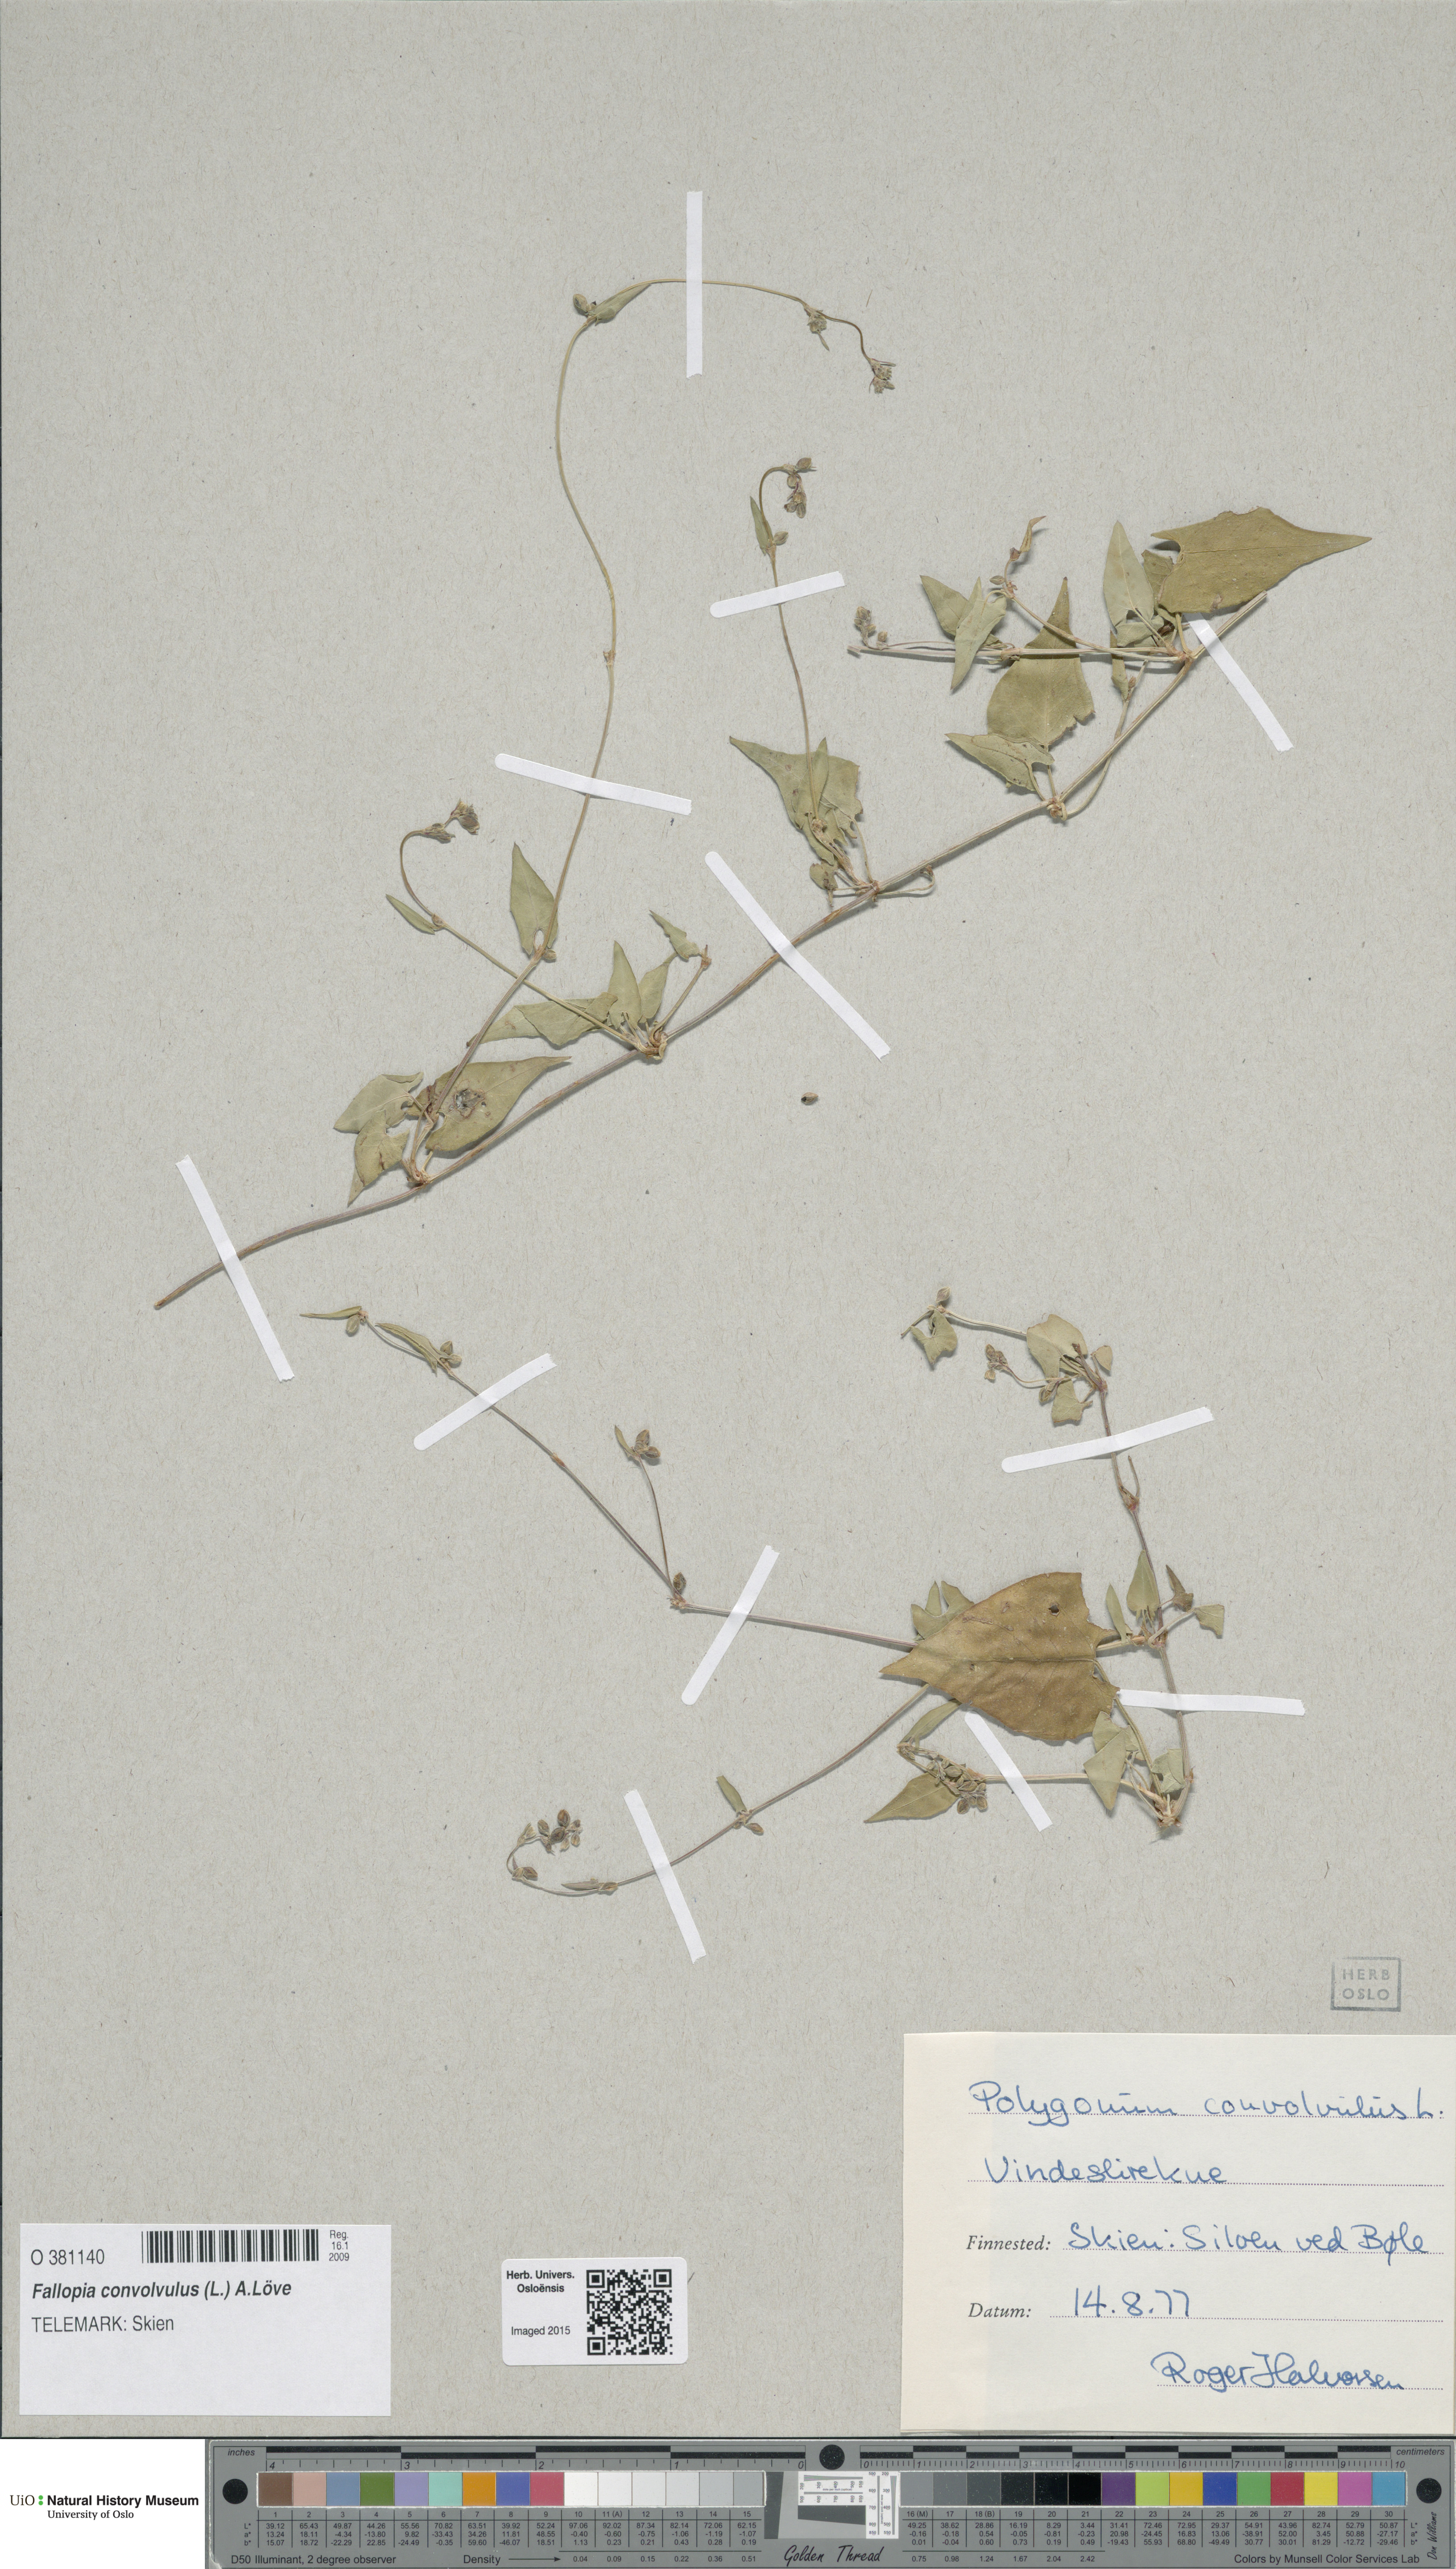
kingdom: Plantae
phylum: Tracheophyta
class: Magnoliopsida
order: Caryophyllales
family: Polygonaceae
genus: Fallopia
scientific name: Fallopia convolvulus
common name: Black bindweed
